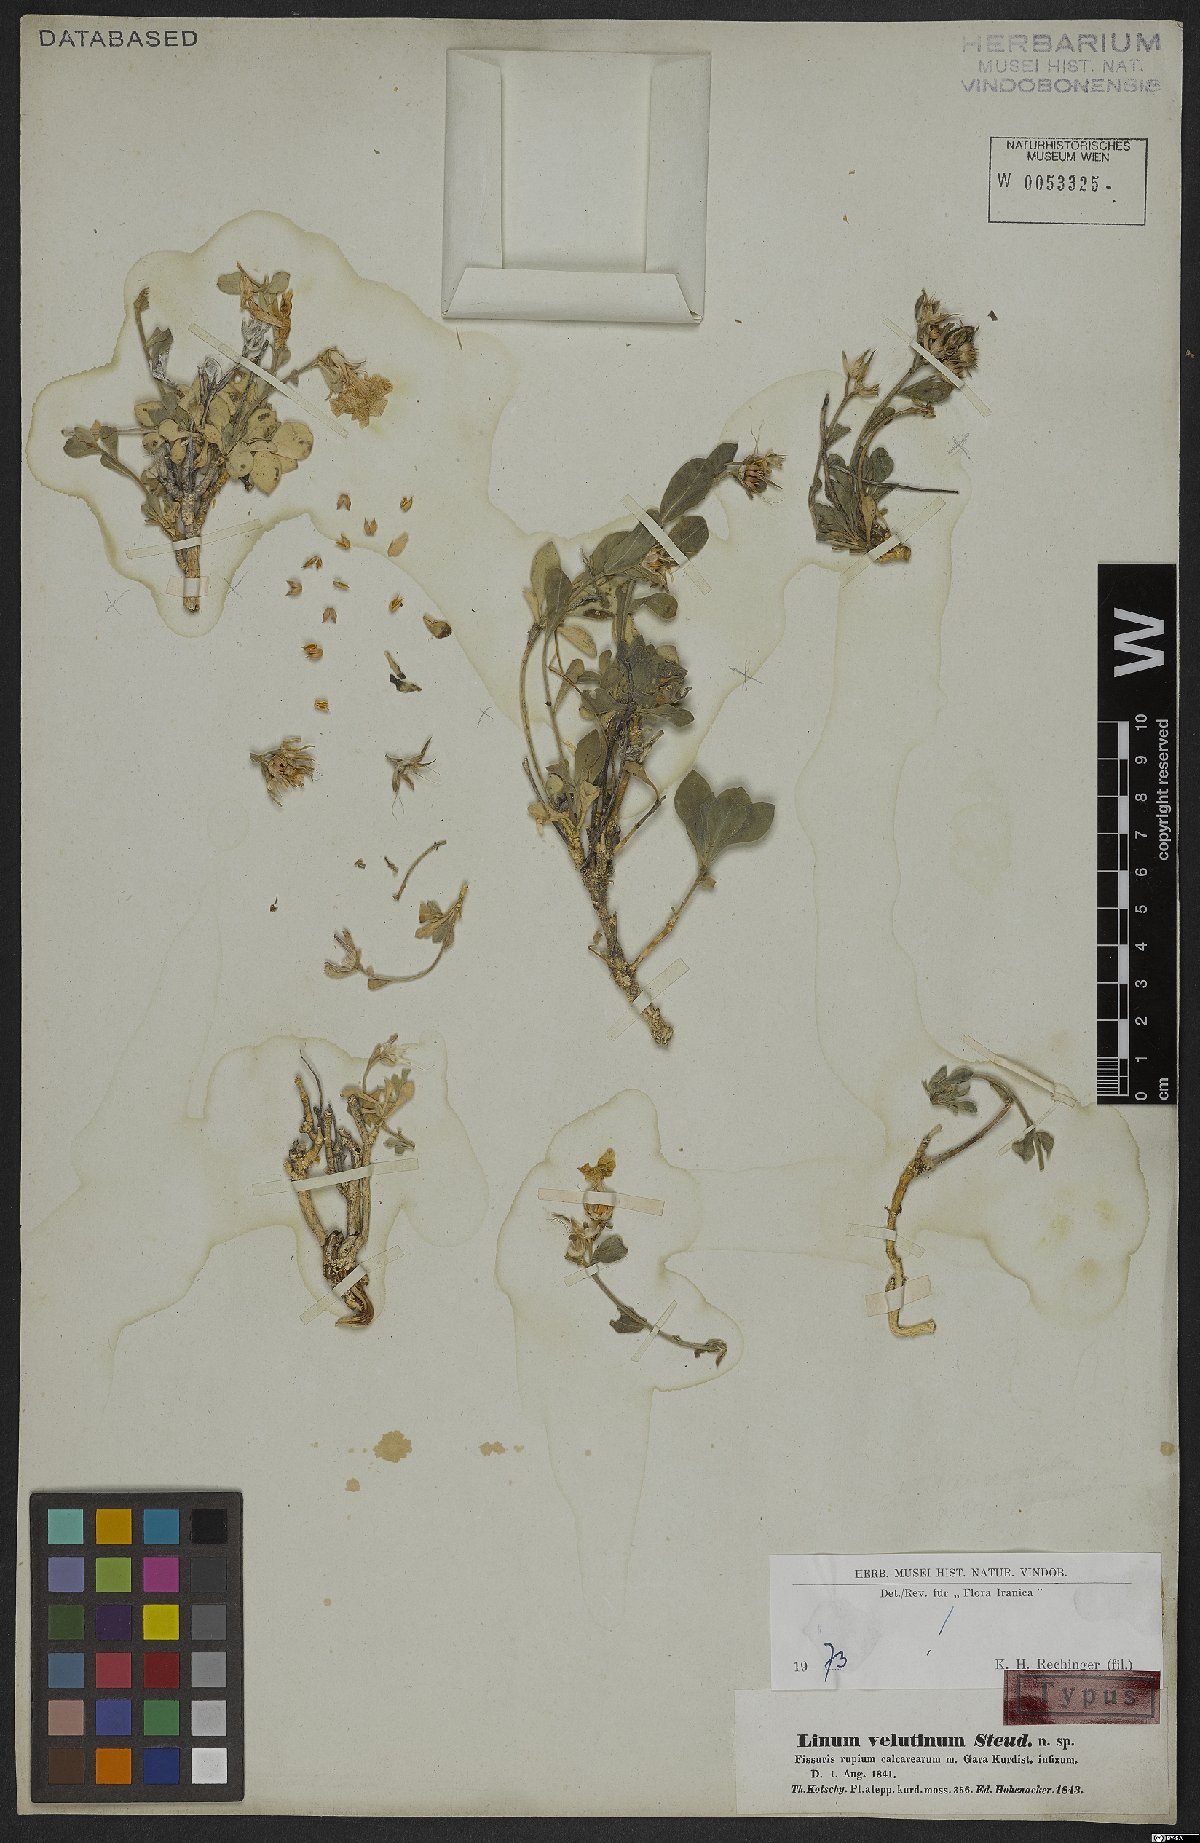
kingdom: Plantae
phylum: Tracheophyta
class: Magnoliopsida
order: Malpighiales
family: Linaceae
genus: Linum
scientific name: Linum velutinum
